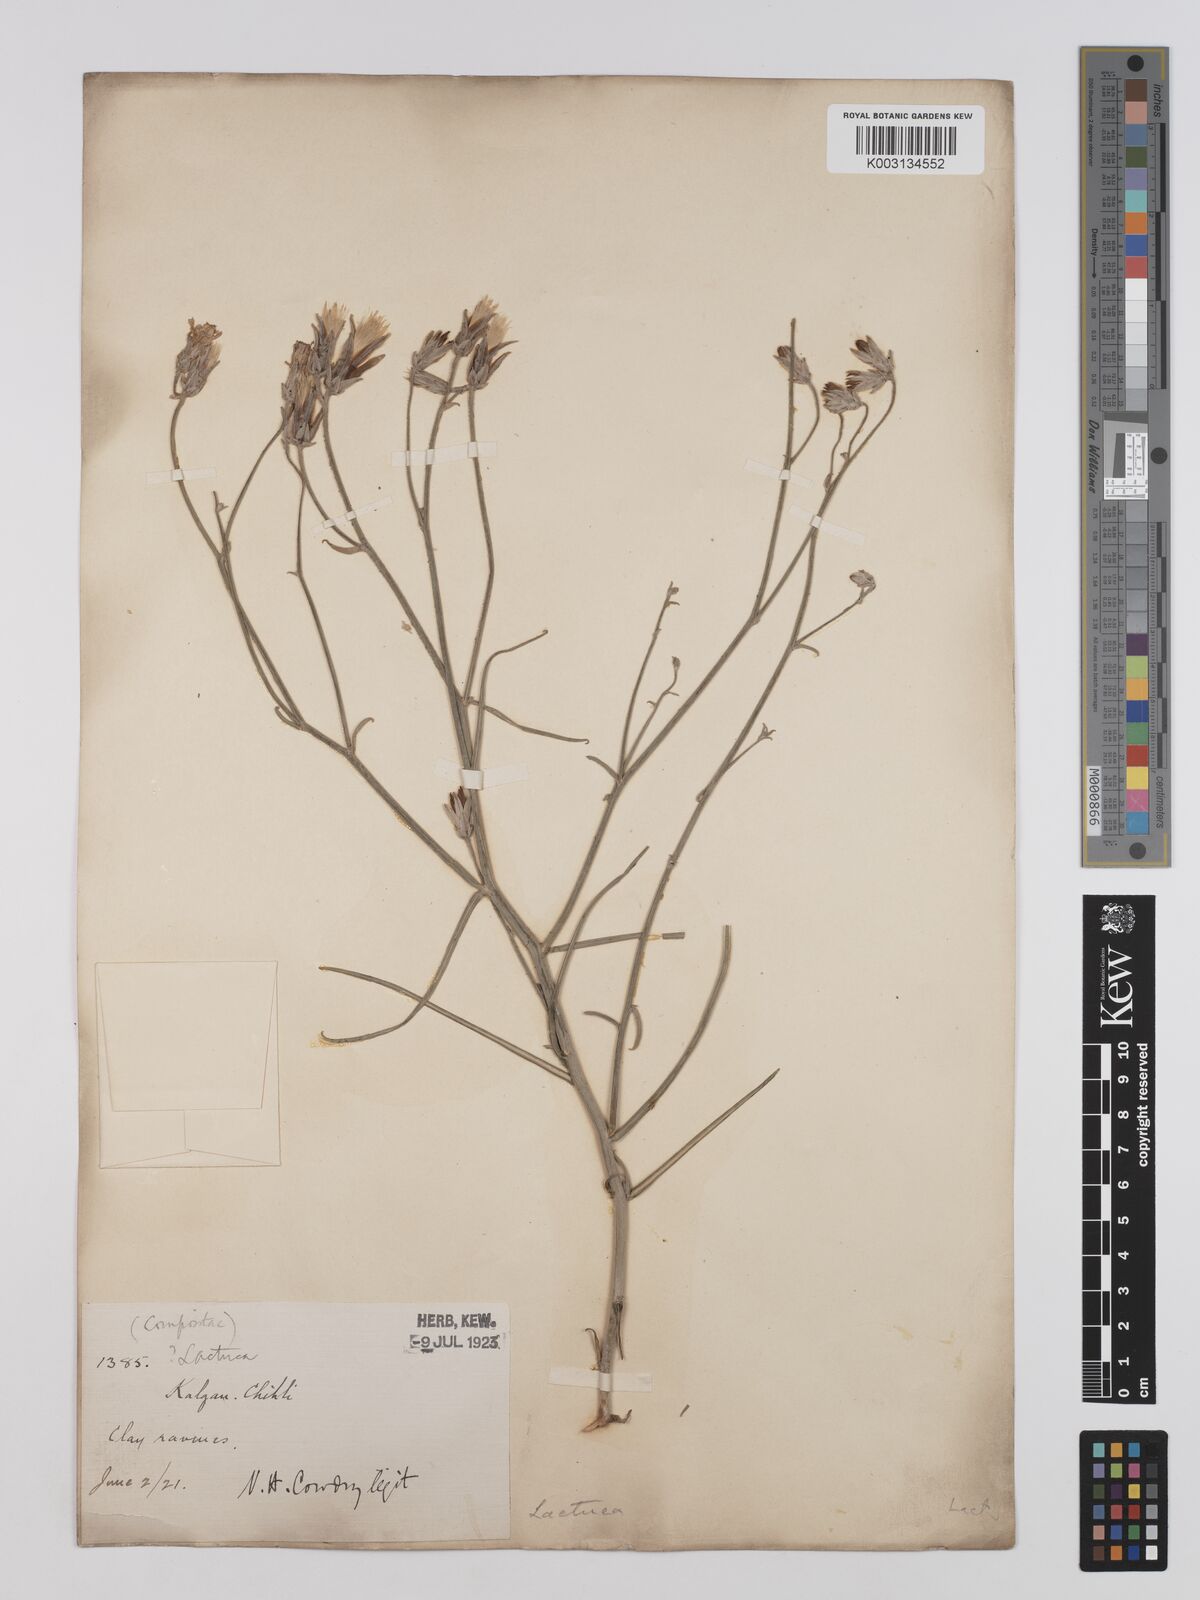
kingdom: Plantae
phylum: Tracheophyta
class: Magnoliopsida
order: Asterales
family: Asteraceae
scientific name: Asteraceae
